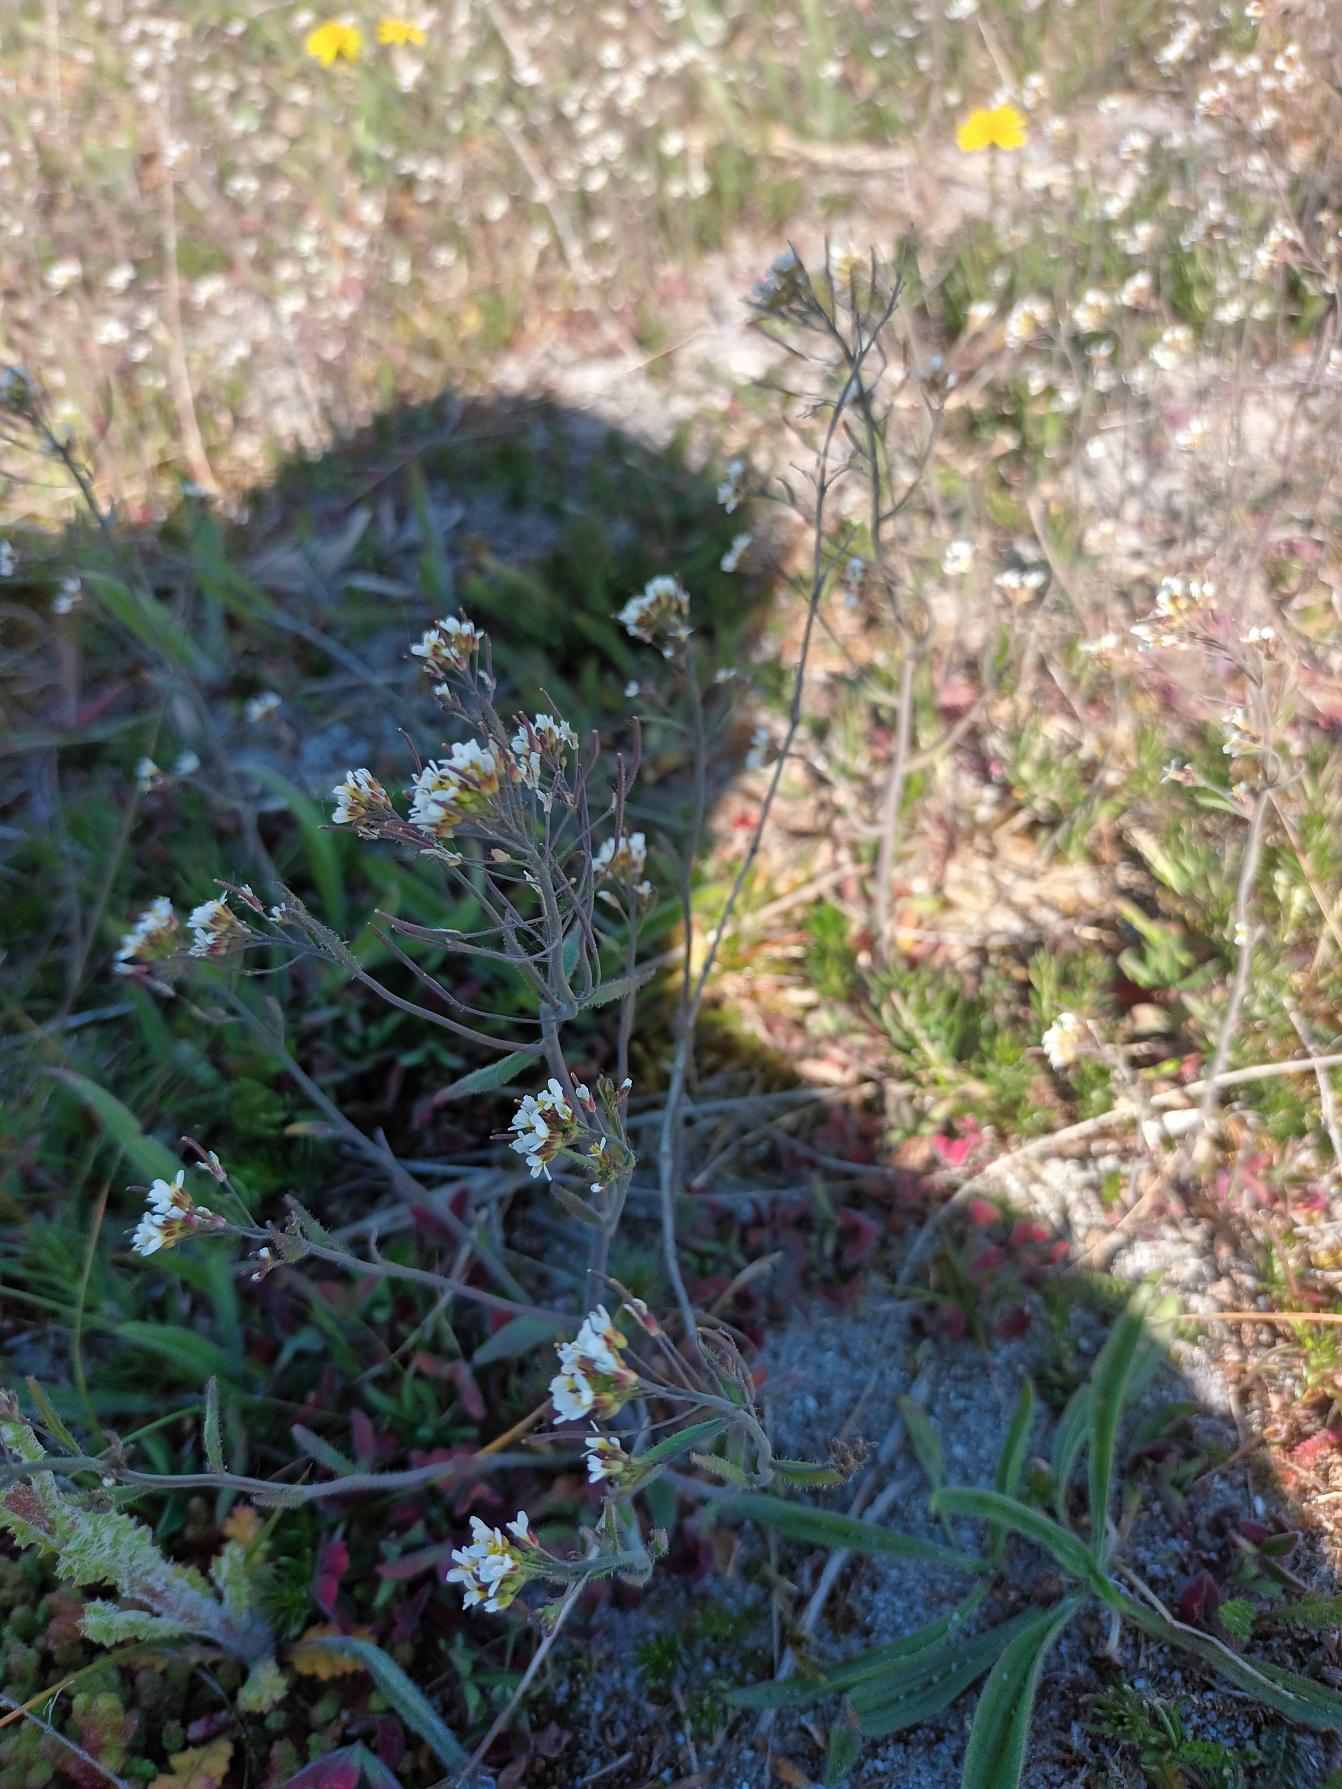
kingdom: Plantae
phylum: Tracheophyta
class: Magnoliopsida
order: Brassicales
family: Brassicaceae
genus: Arabidopsis
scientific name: Arabidopsis thaliana
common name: Almindelig gåsemad
